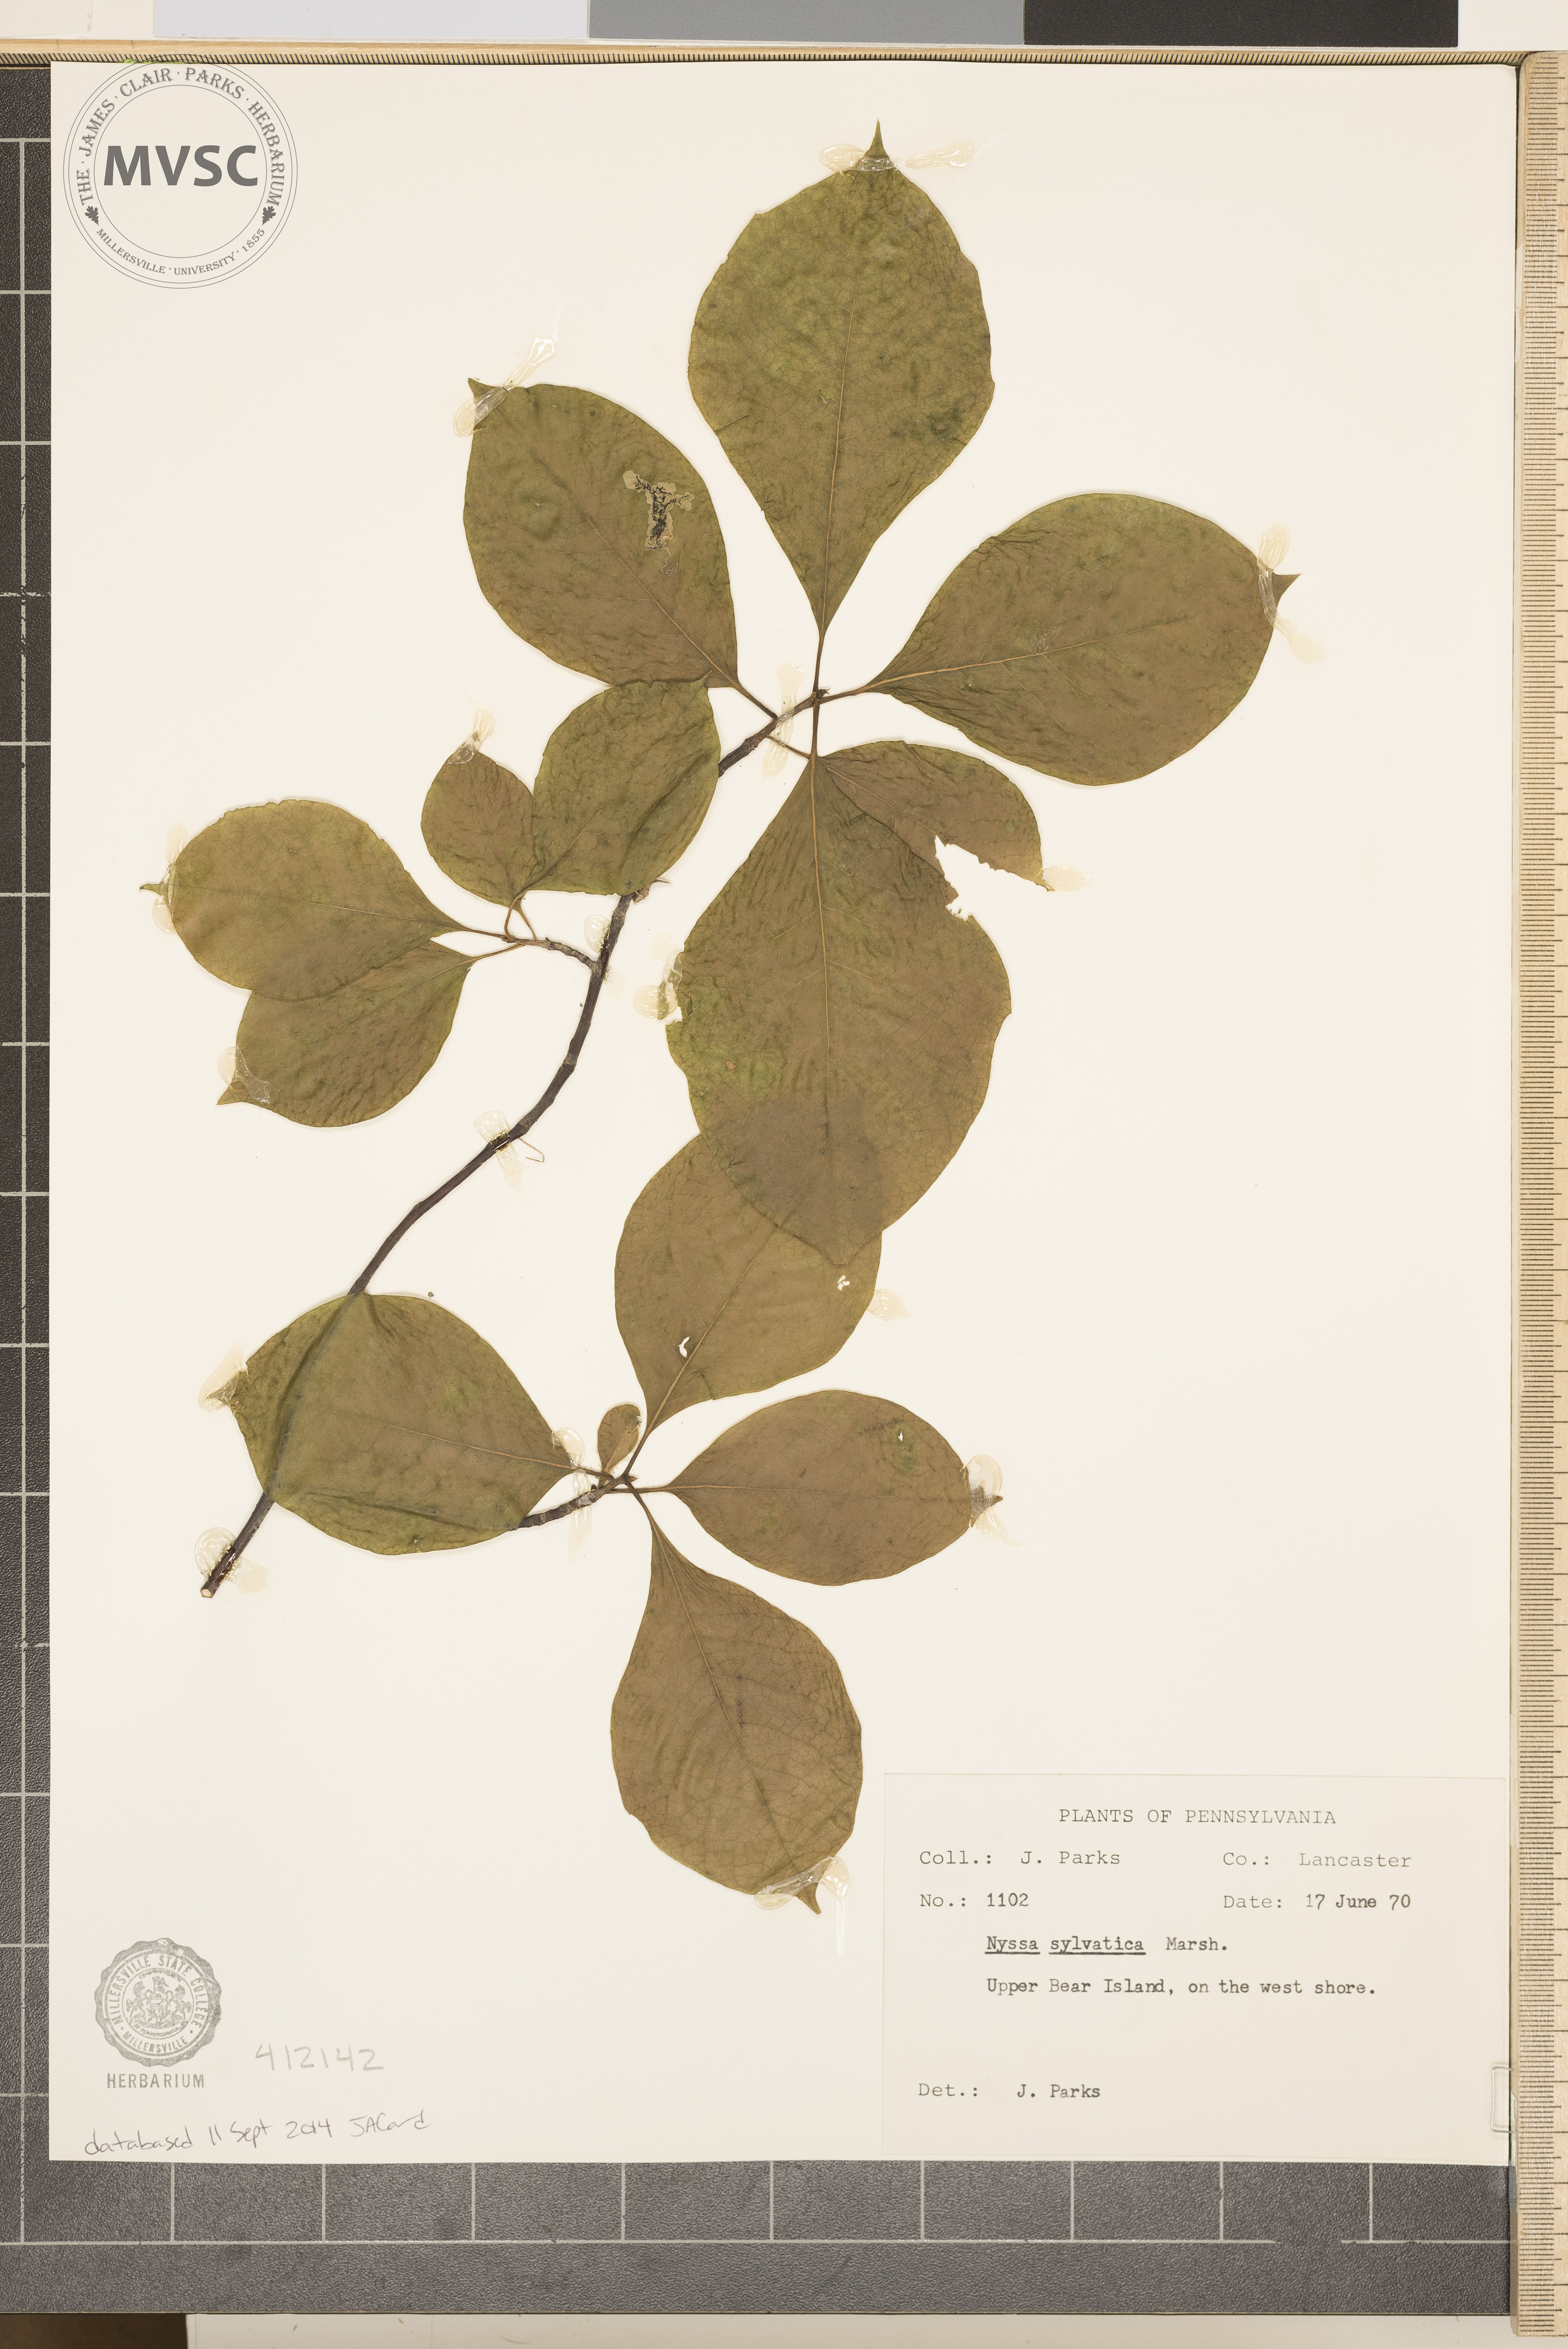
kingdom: Plantae
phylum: Tracheophyta
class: Magnoliopsida
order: Cornales
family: Nyssaceae
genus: Nyssa
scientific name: Nyssa sylvatica
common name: Black tupelo
